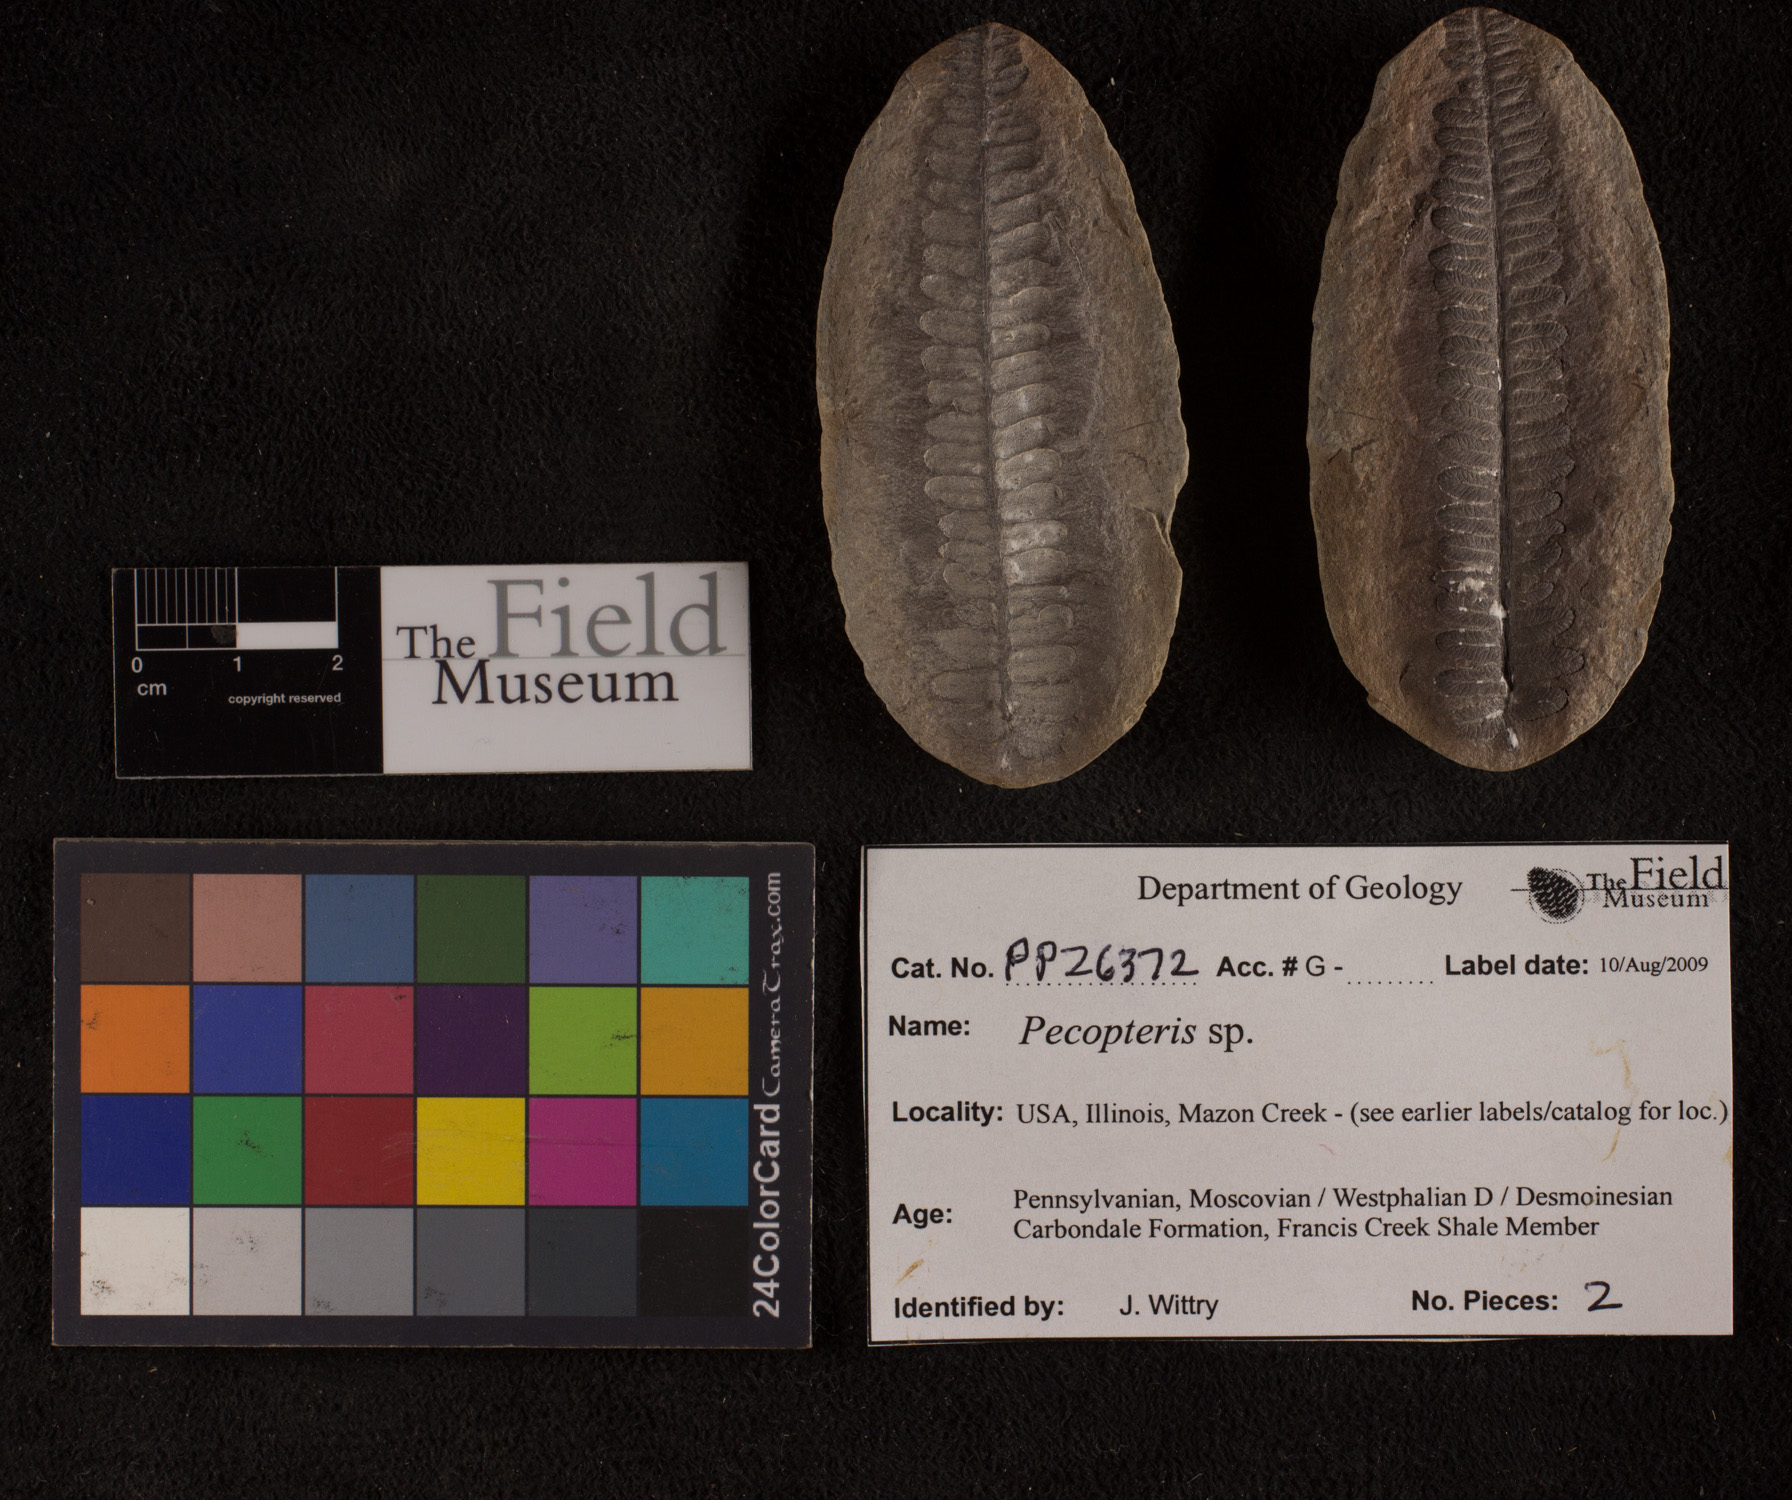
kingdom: Plantae
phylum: Tracheophyta
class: Polypodiopsida
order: Marattiales
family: Asterothecaceae
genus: Pecopteris
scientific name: Pecopteris
